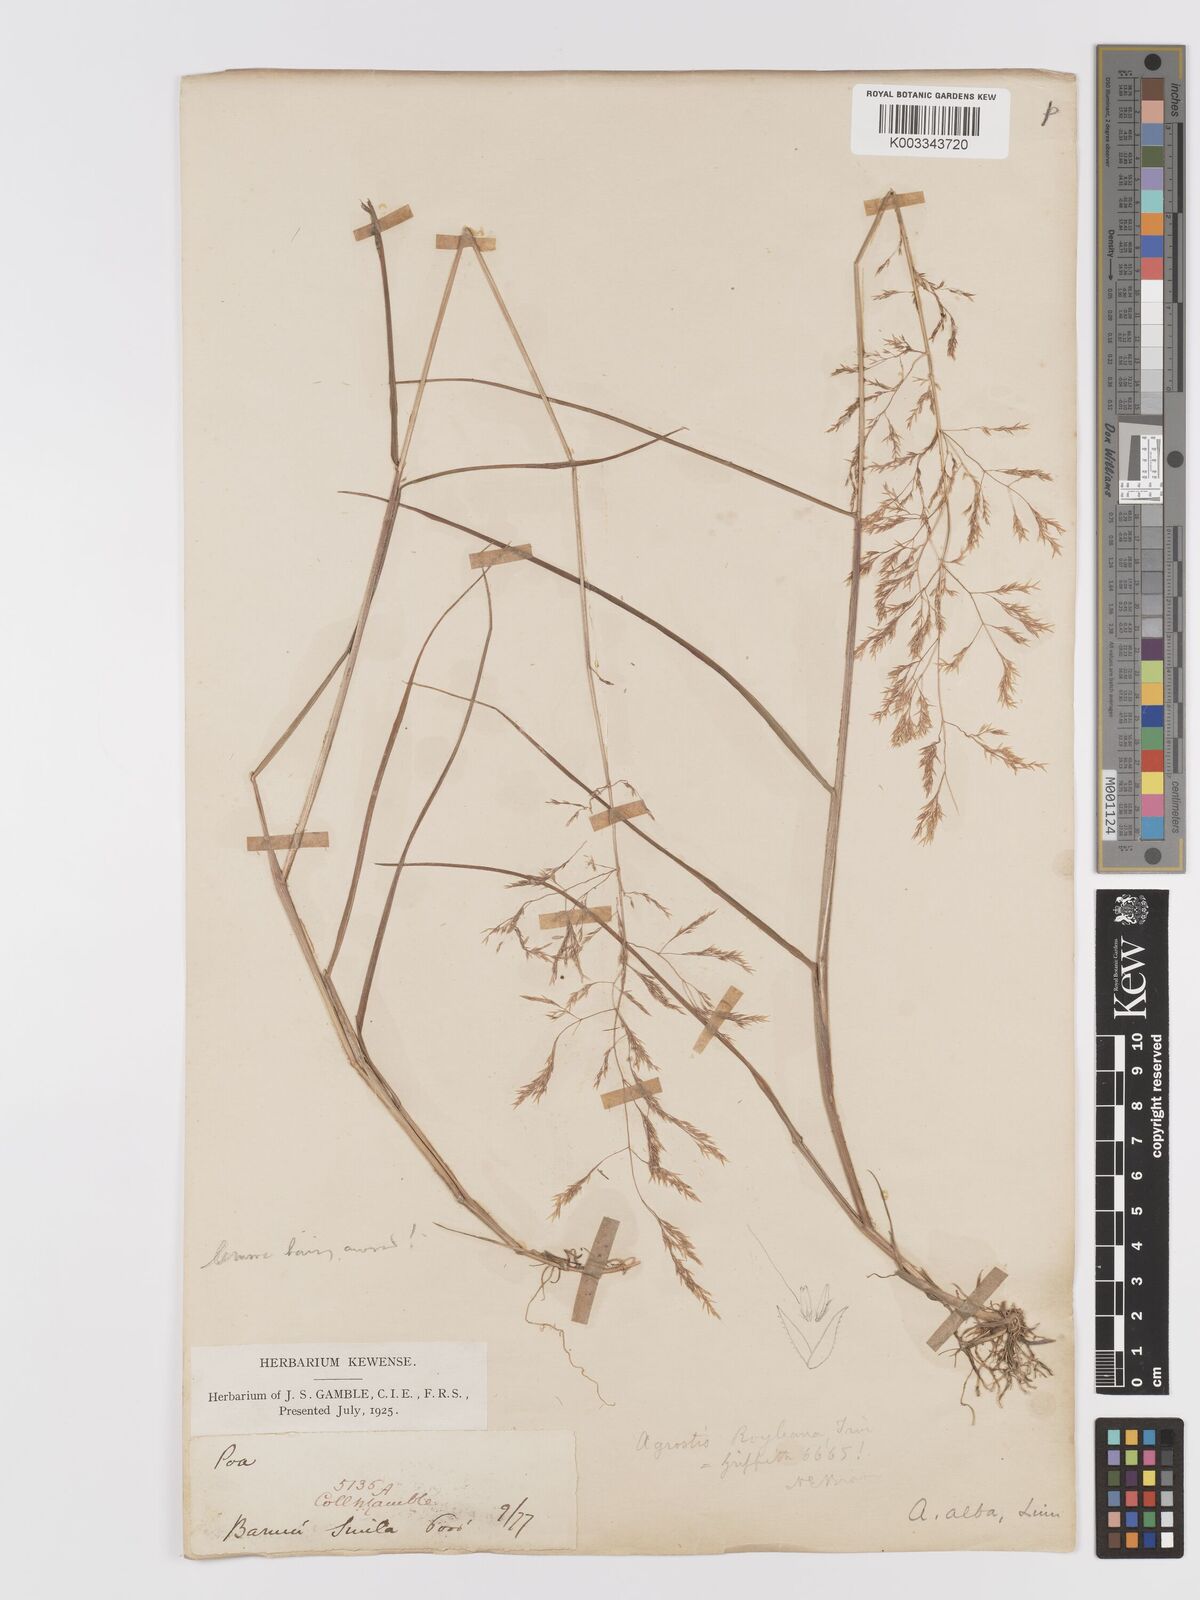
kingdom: Plantae
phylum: Tracheophyta
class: Liliopsida
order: Poales
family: Poaceae
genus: Agrostis
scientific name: Agrostis pilosula
